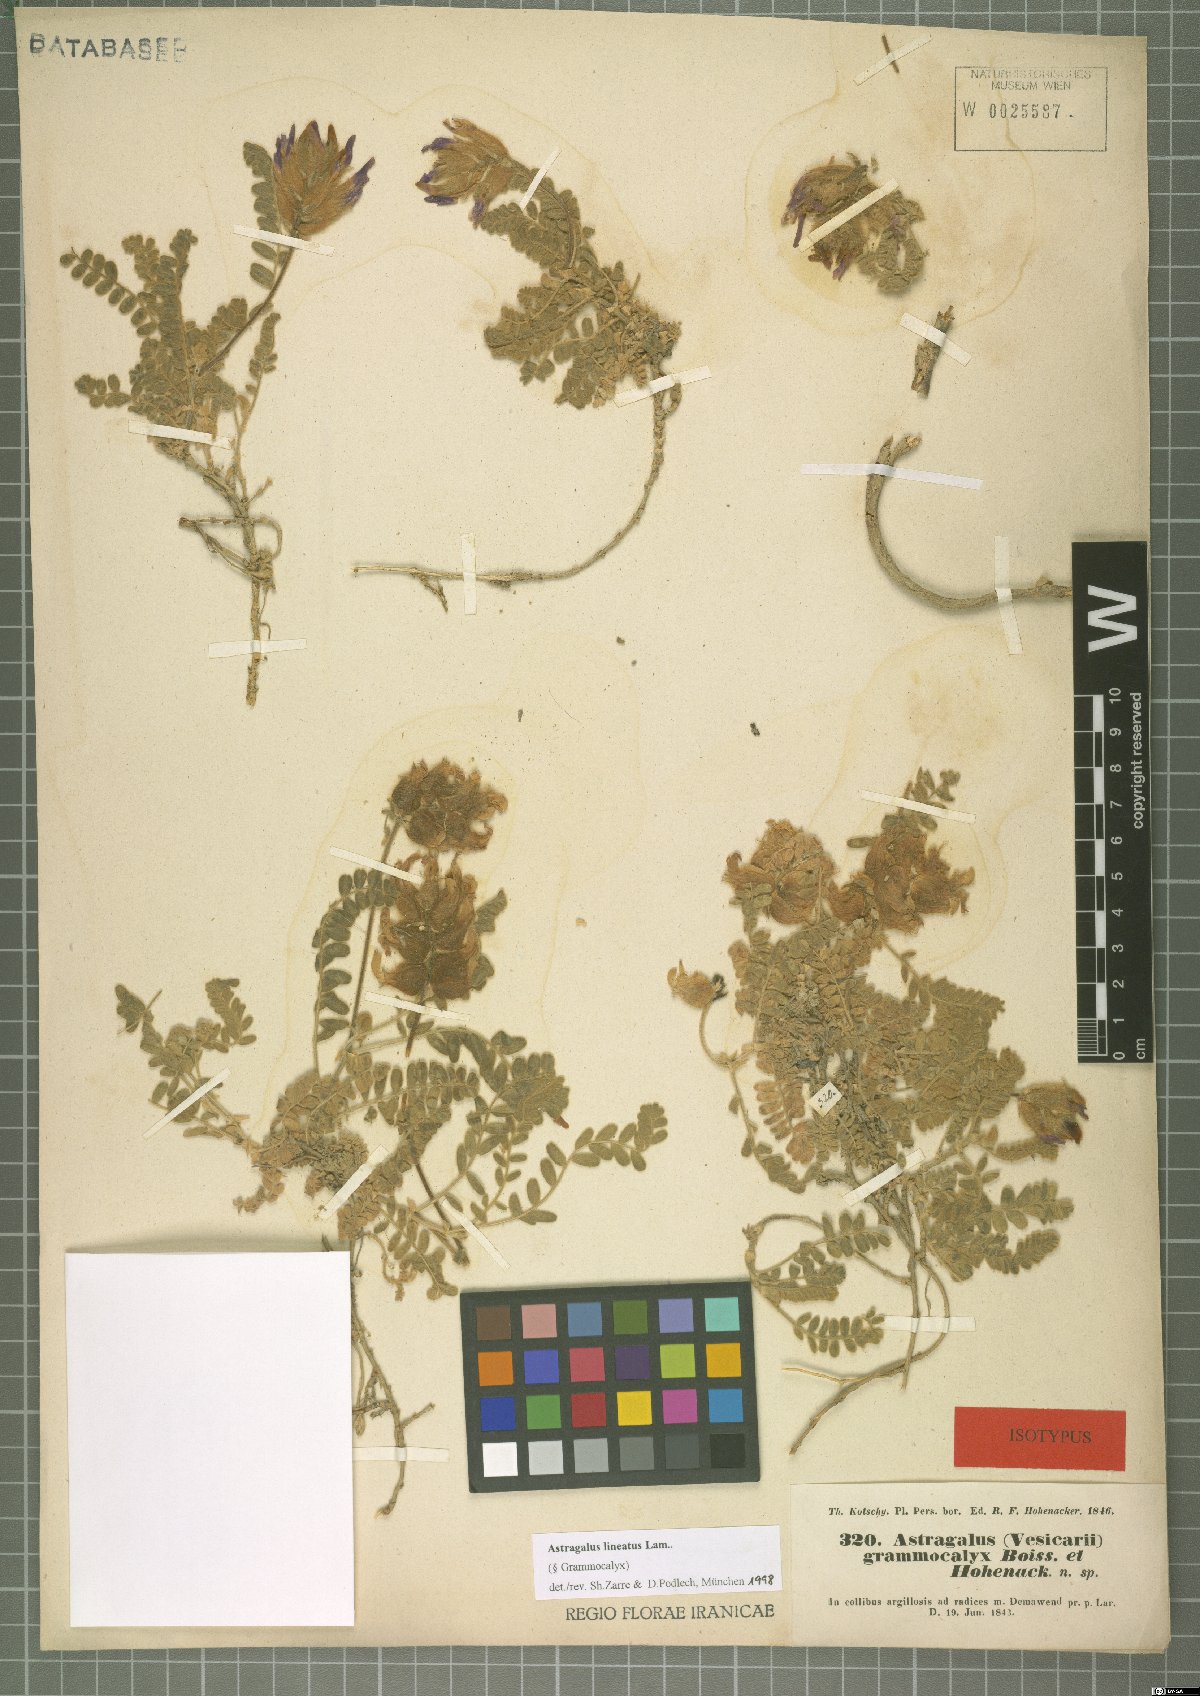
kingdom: Plantae
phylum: Tracheophyta
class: Magnoliopsida
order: Fabales
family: Fabaceae
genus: Astragalus
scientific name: Astragalus lineatus
